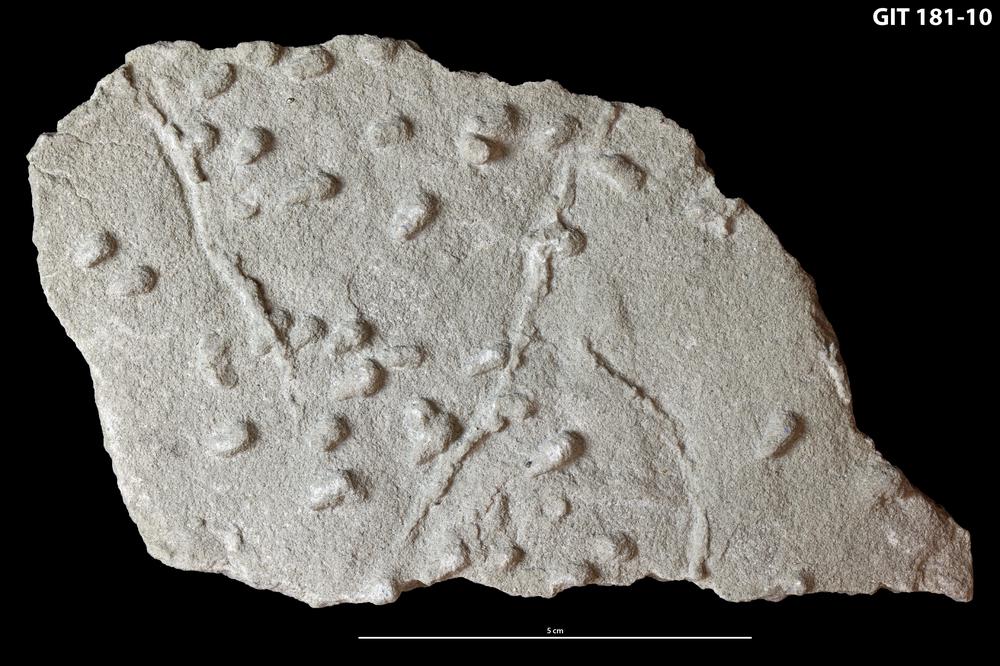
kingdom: Plantae
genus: Lockeia
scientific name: Lockeia siliquaria
